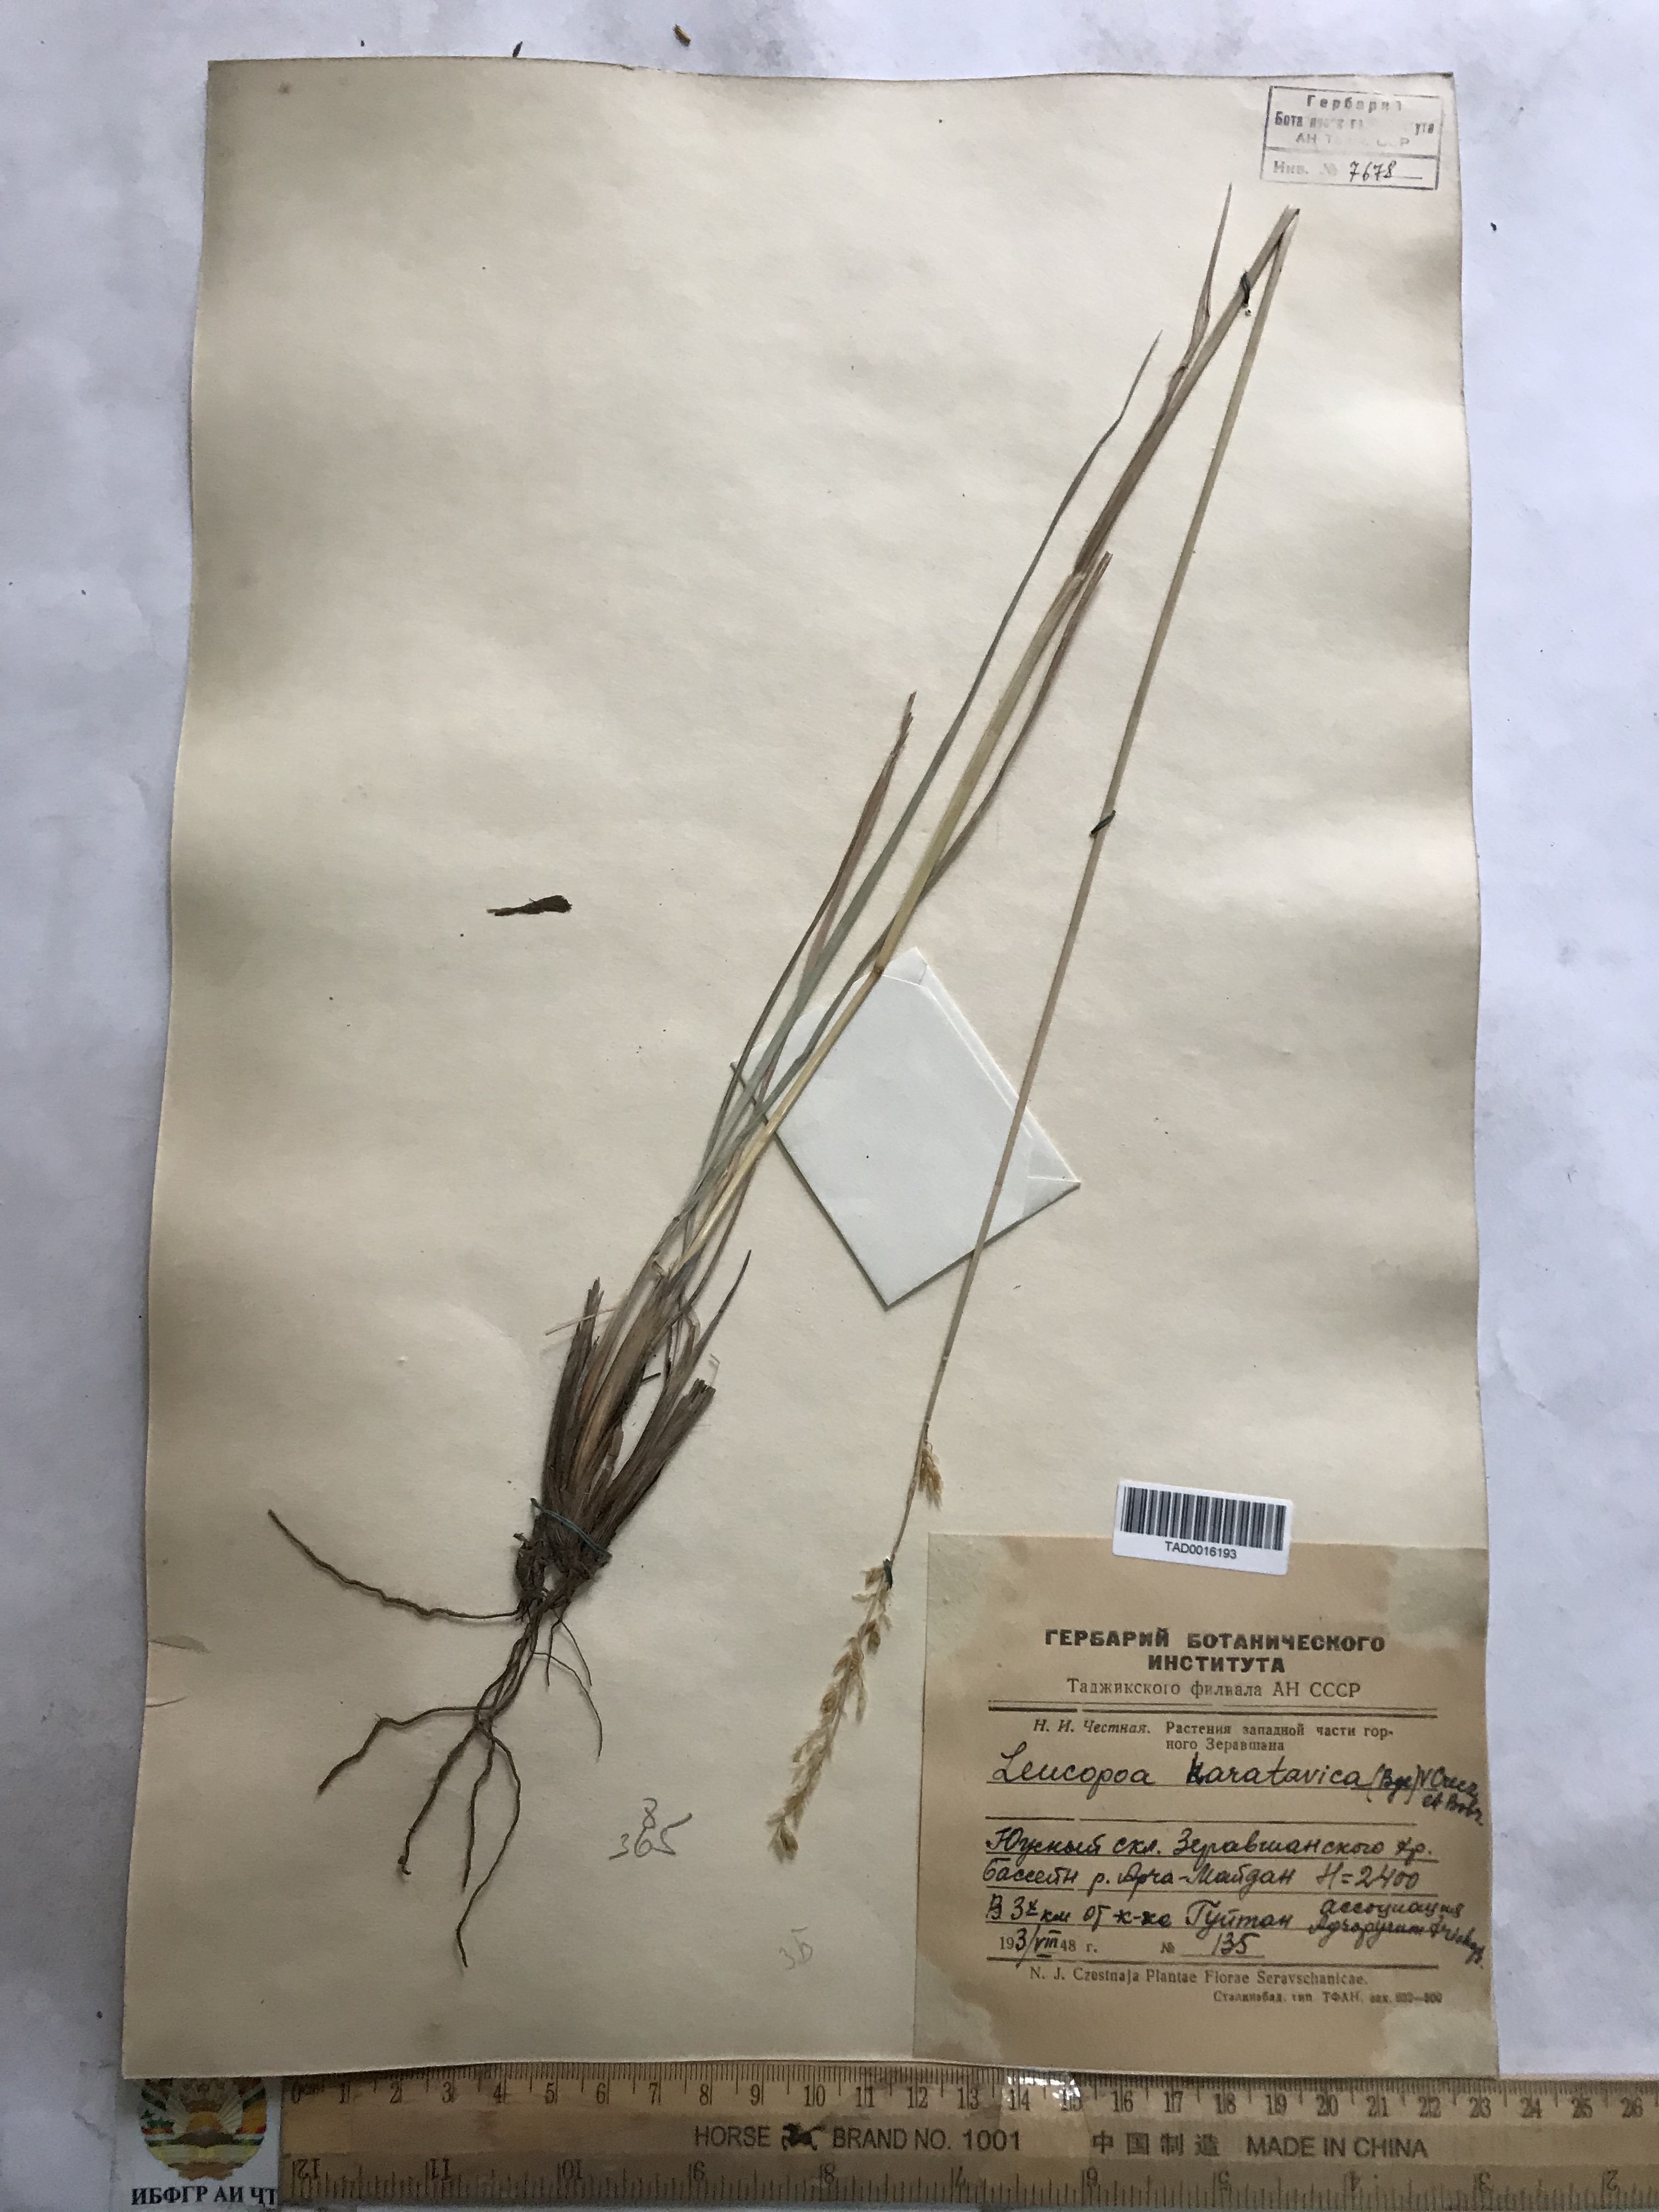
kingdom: Plantae
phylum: Tracheophyta
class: Liliopsida
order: Poales
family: Poaceae
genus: Festuca
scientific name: Festuca karatavica
